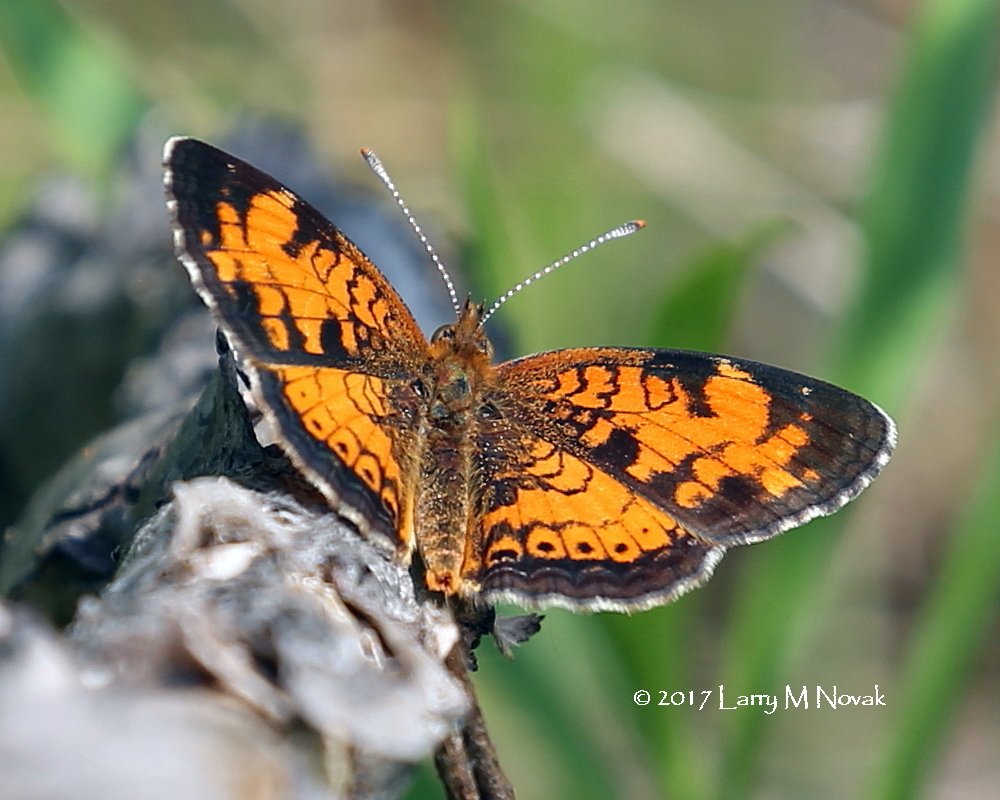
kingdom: Animalia
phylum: Arthropoda
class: Insecta
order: Lepidoptera
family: Nymphalidae
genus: Phyciodes
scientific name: Phyciodes tharos
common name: Northern Crescent
